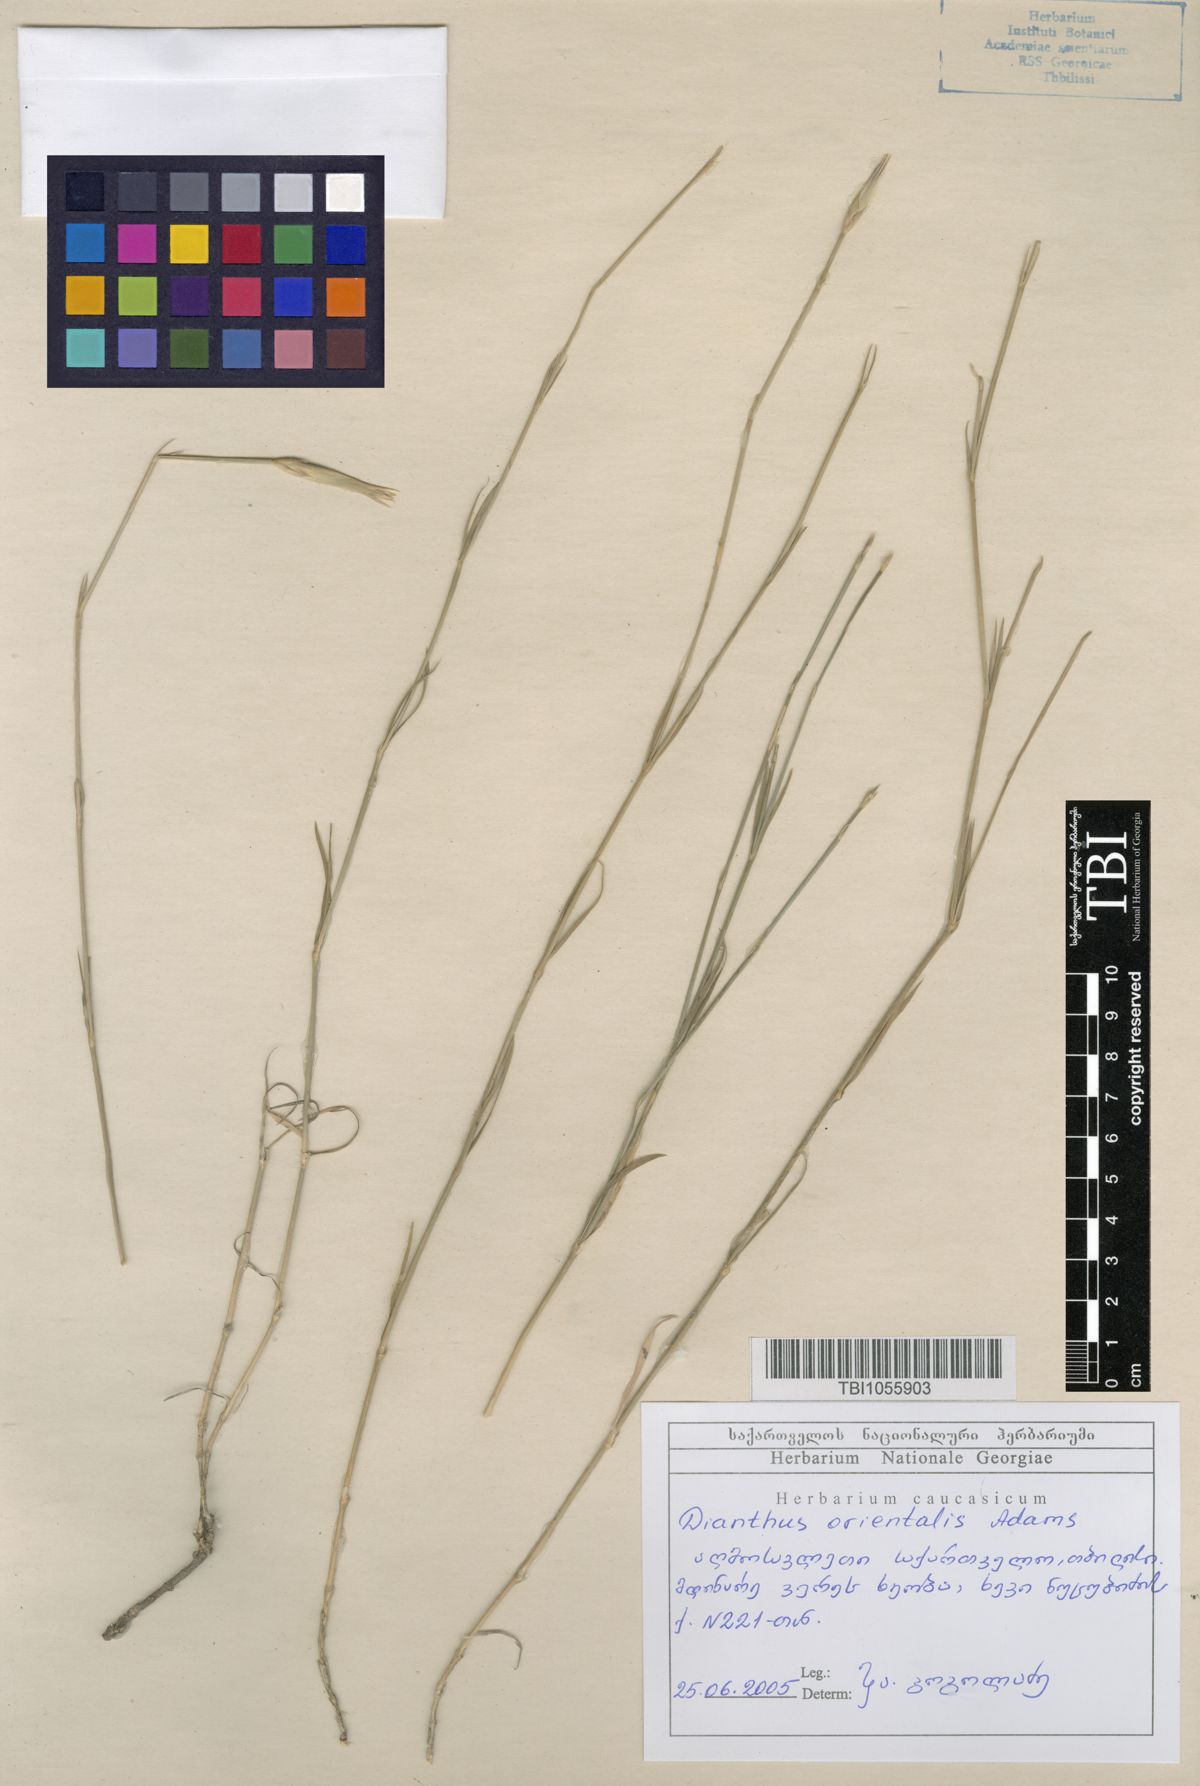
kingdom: Plantae
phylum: Tracheophyta
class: Magnoliopsida
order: Caryophyllales
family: Caryophyllaceae
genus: Dianthus
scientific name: Dianthus orientalis
